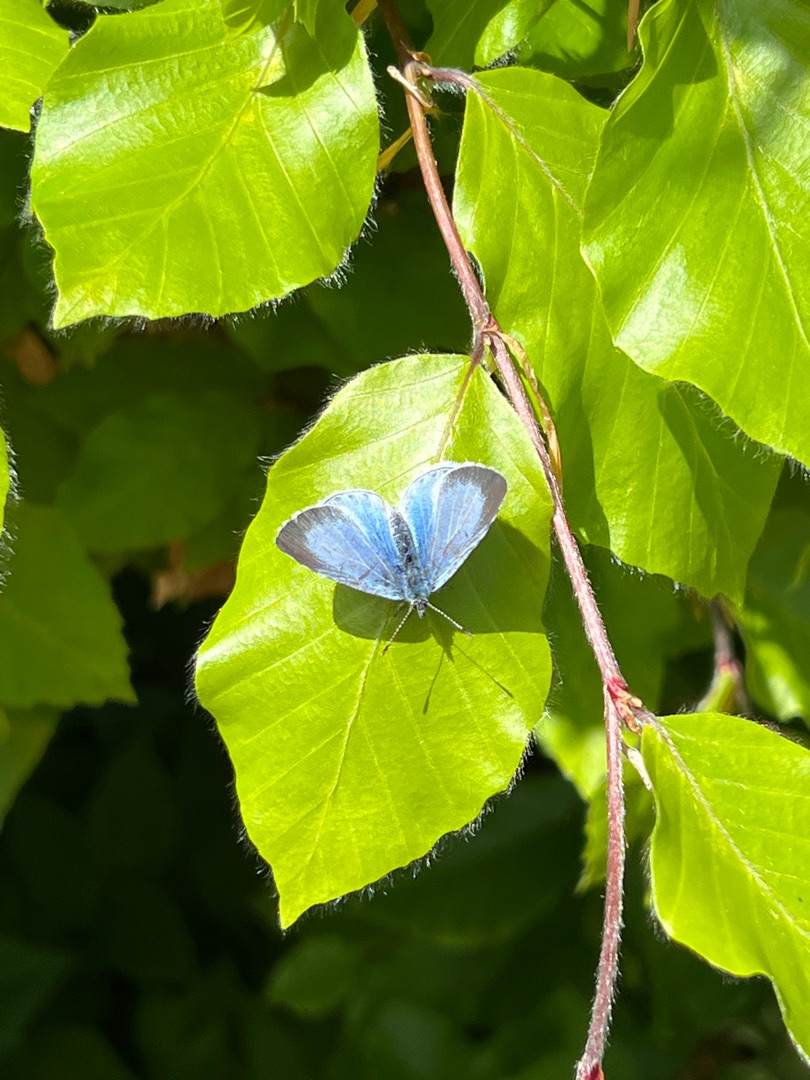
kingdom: Animalia
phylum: Arthropoda
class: Insecta
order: Lepidoptera
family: Lycaenidae
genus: Celastrina
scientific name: Celastrina argiolus
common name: Skovblåfugl
